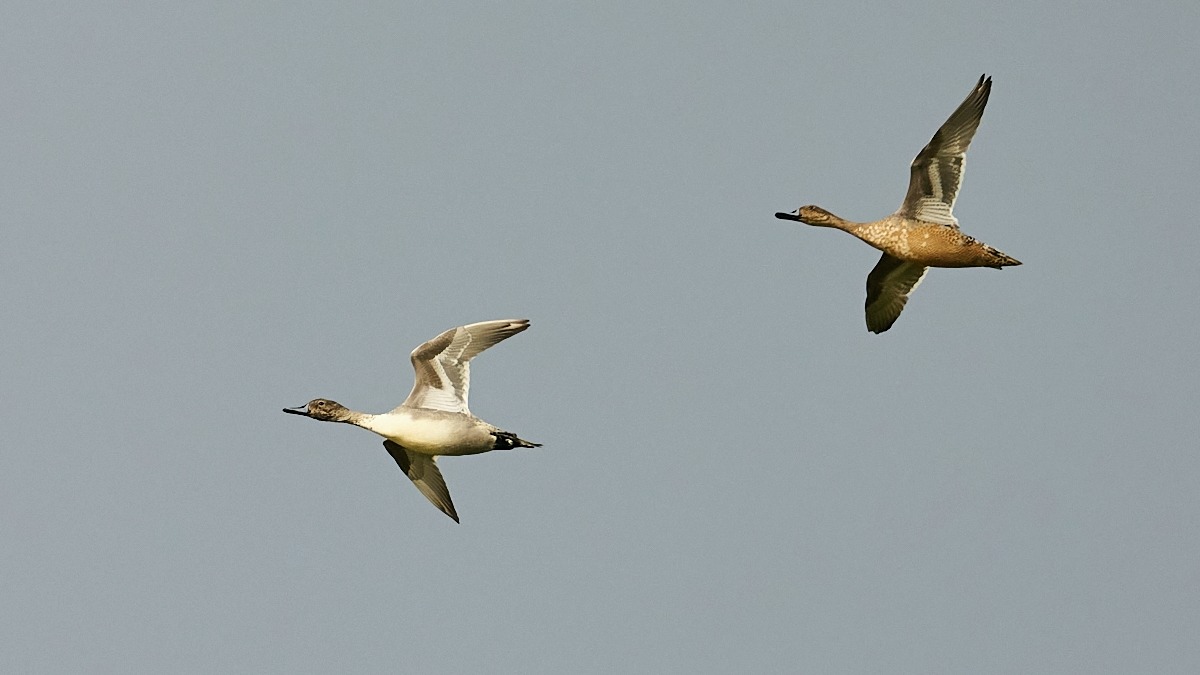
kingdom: Animalia
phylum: Chordata
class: Aves
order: Anseriformes
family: Anatidae
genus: Anas
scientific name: Anas acuta
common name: Spidsand
